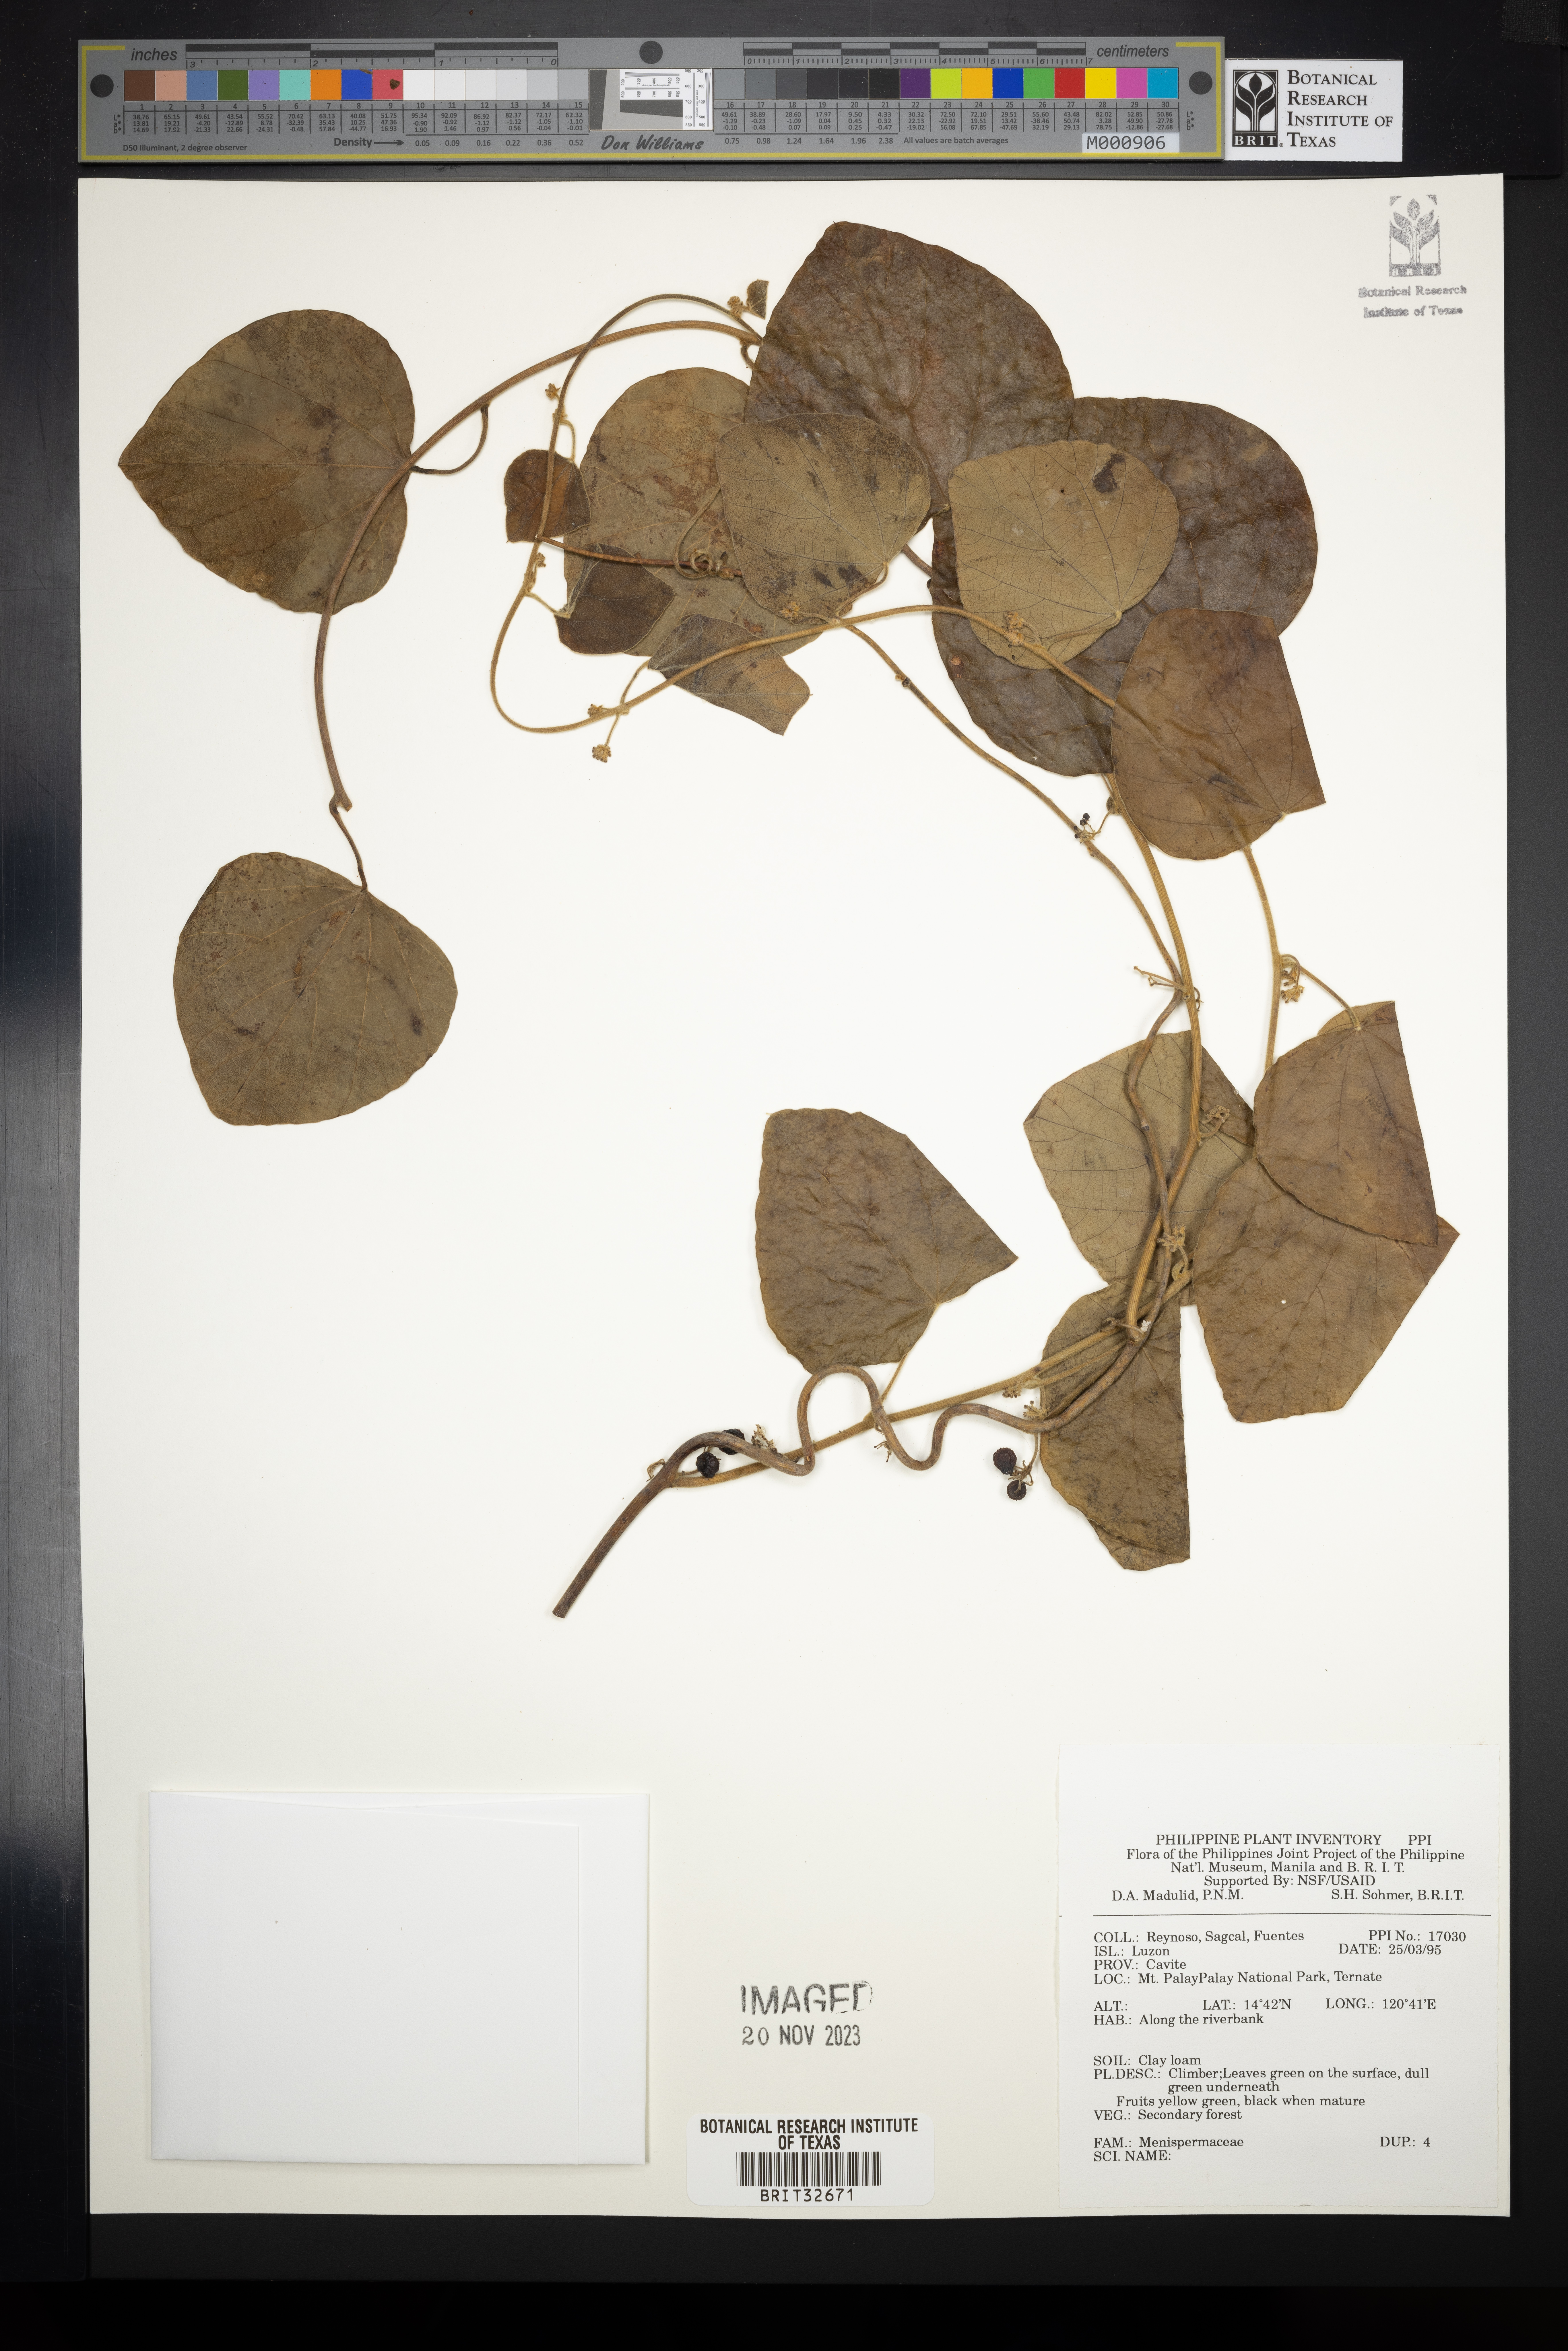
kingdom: Plantae
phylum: Tracheophyta
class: Magnoliopsida
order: Ranunculales
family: Menispermaceae
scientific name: Menispermaceae
